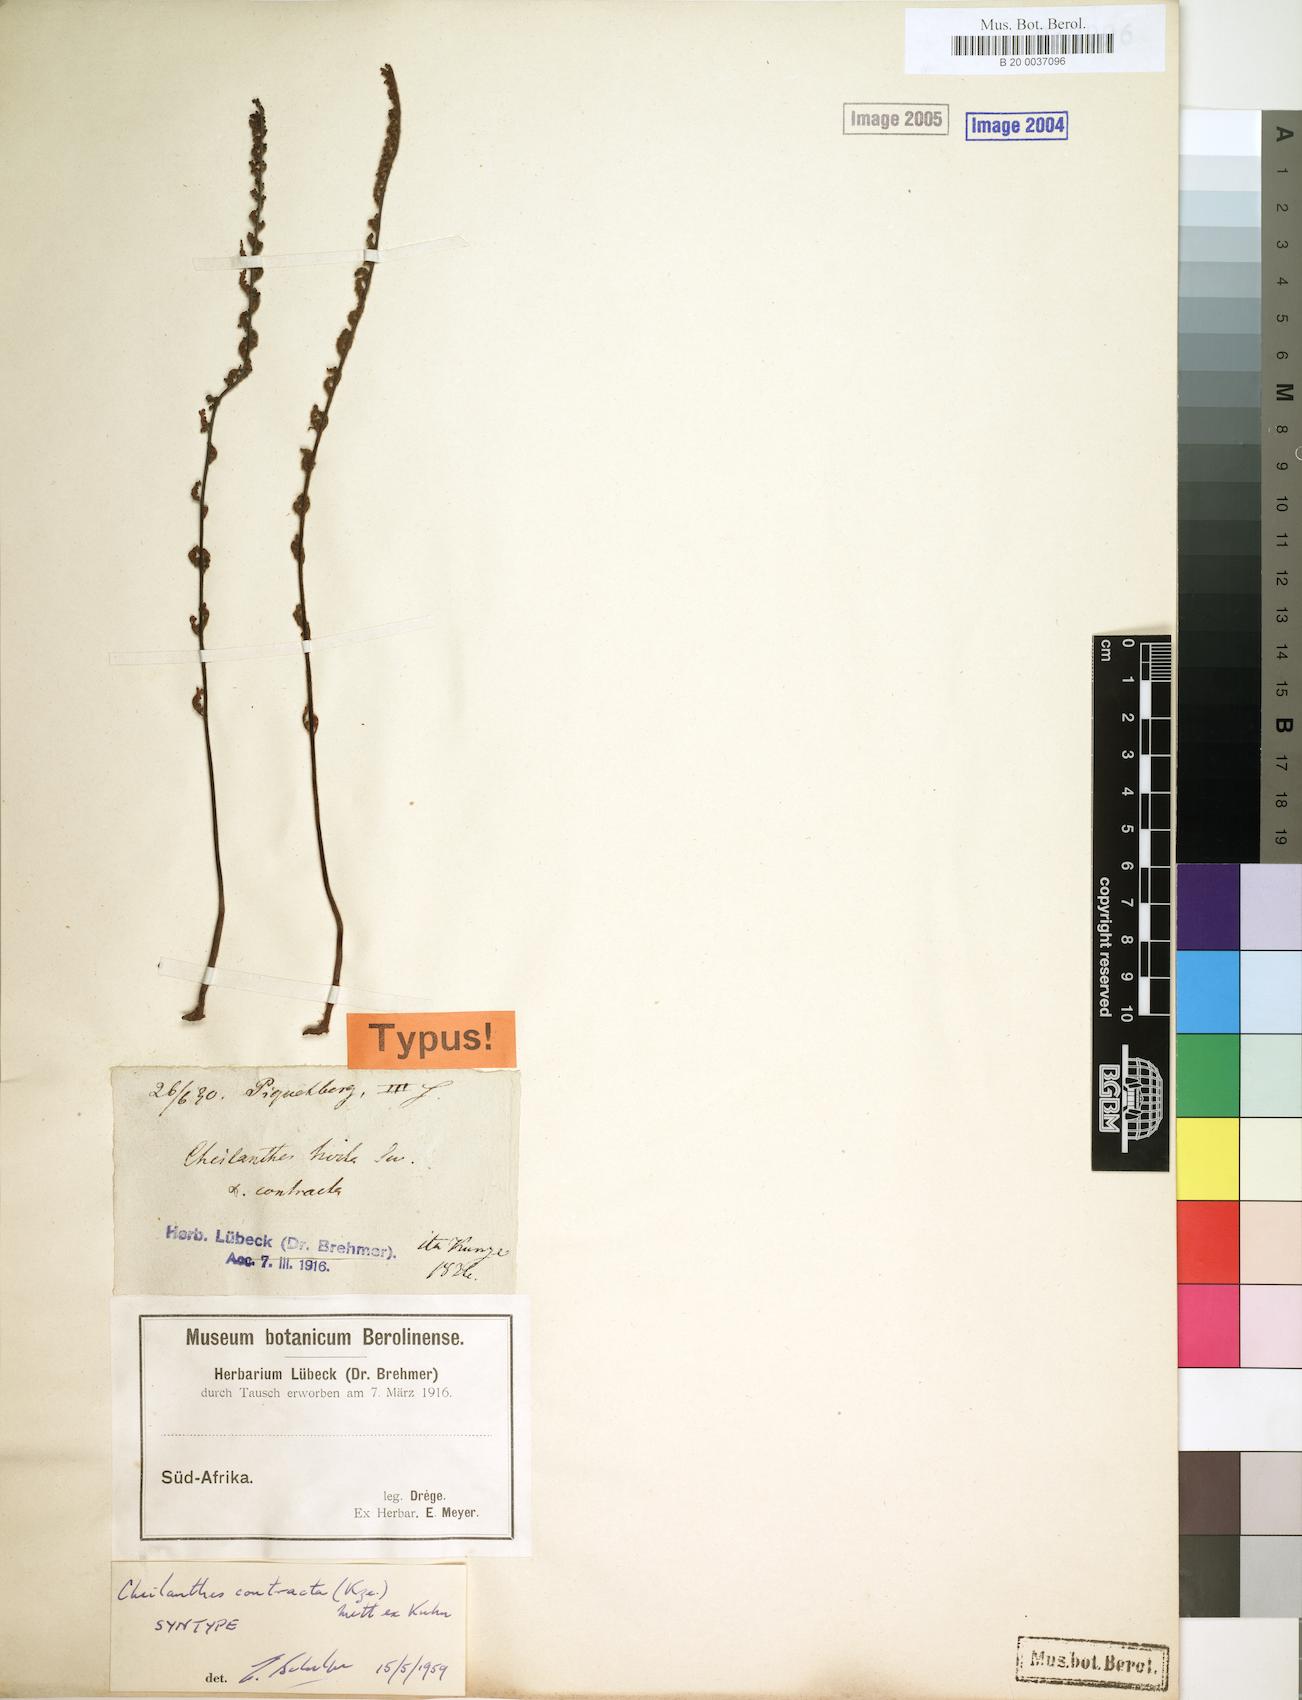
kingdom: Plantae
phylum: Tracheophyta
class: Polypodiopsida
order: Polypodiales
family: Pteridaceae
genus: Cheilanthes
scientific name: Cheilanthes contracta
